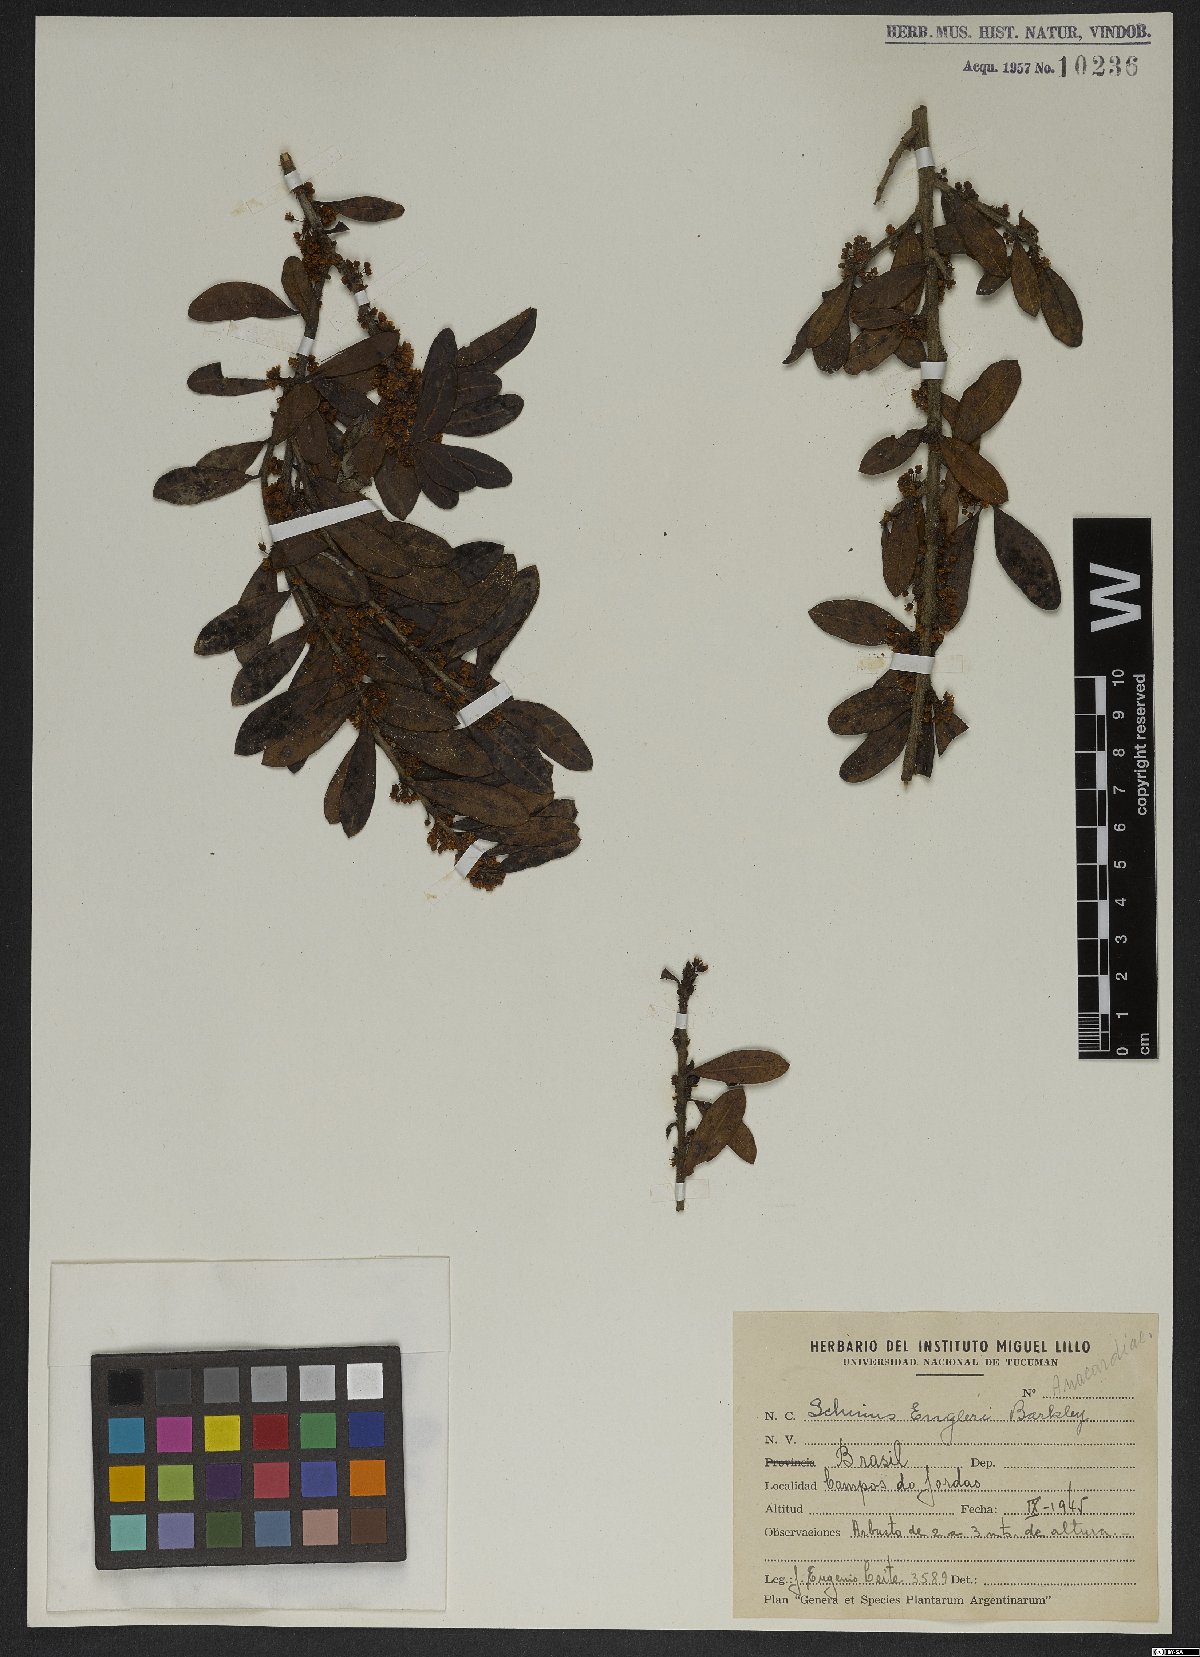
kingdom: Plantae
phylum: Tracheophyta
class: Magnoliopsida
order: Sapindales
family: Anacardiaceae
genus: Schinus
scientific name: Schinus engleri
